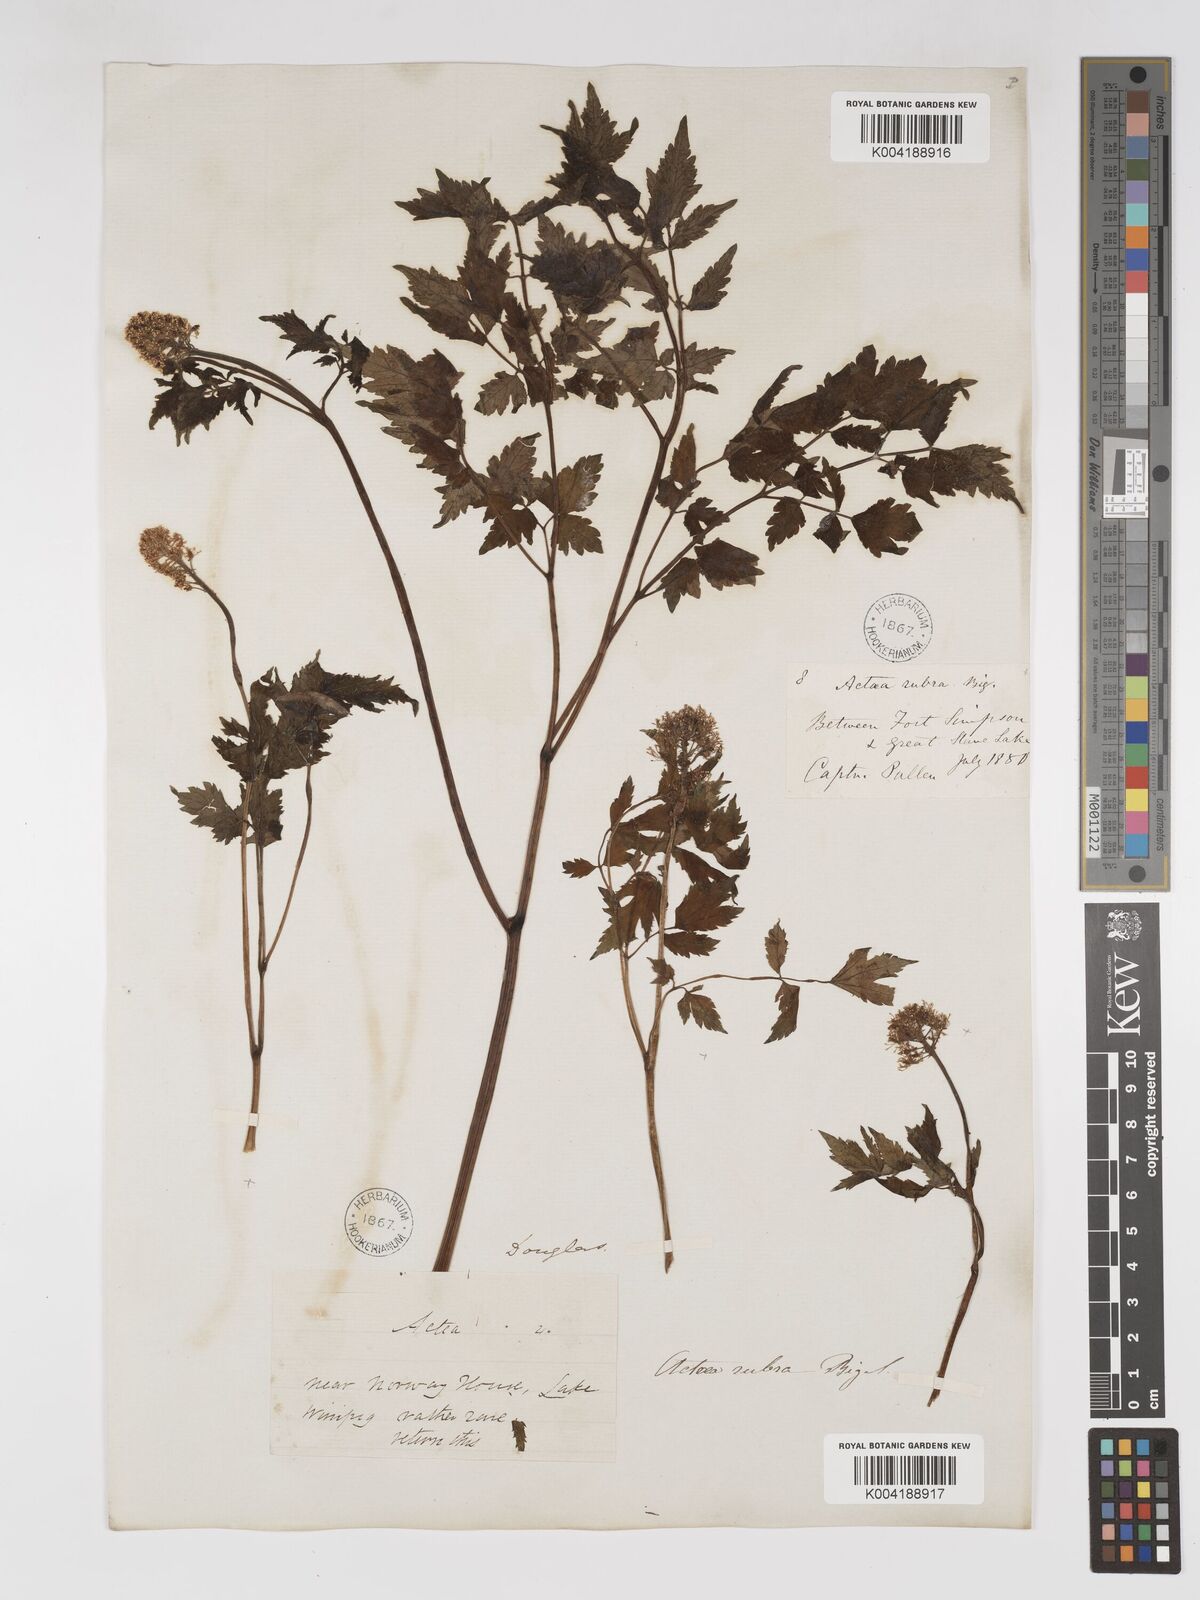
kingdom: Plantae
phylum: Tracheophyta
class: Magnoliopsida
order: Ranunculales
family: Ranunculaceae
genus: Actaea
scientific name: Actaea rubra
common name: Red baneberry
